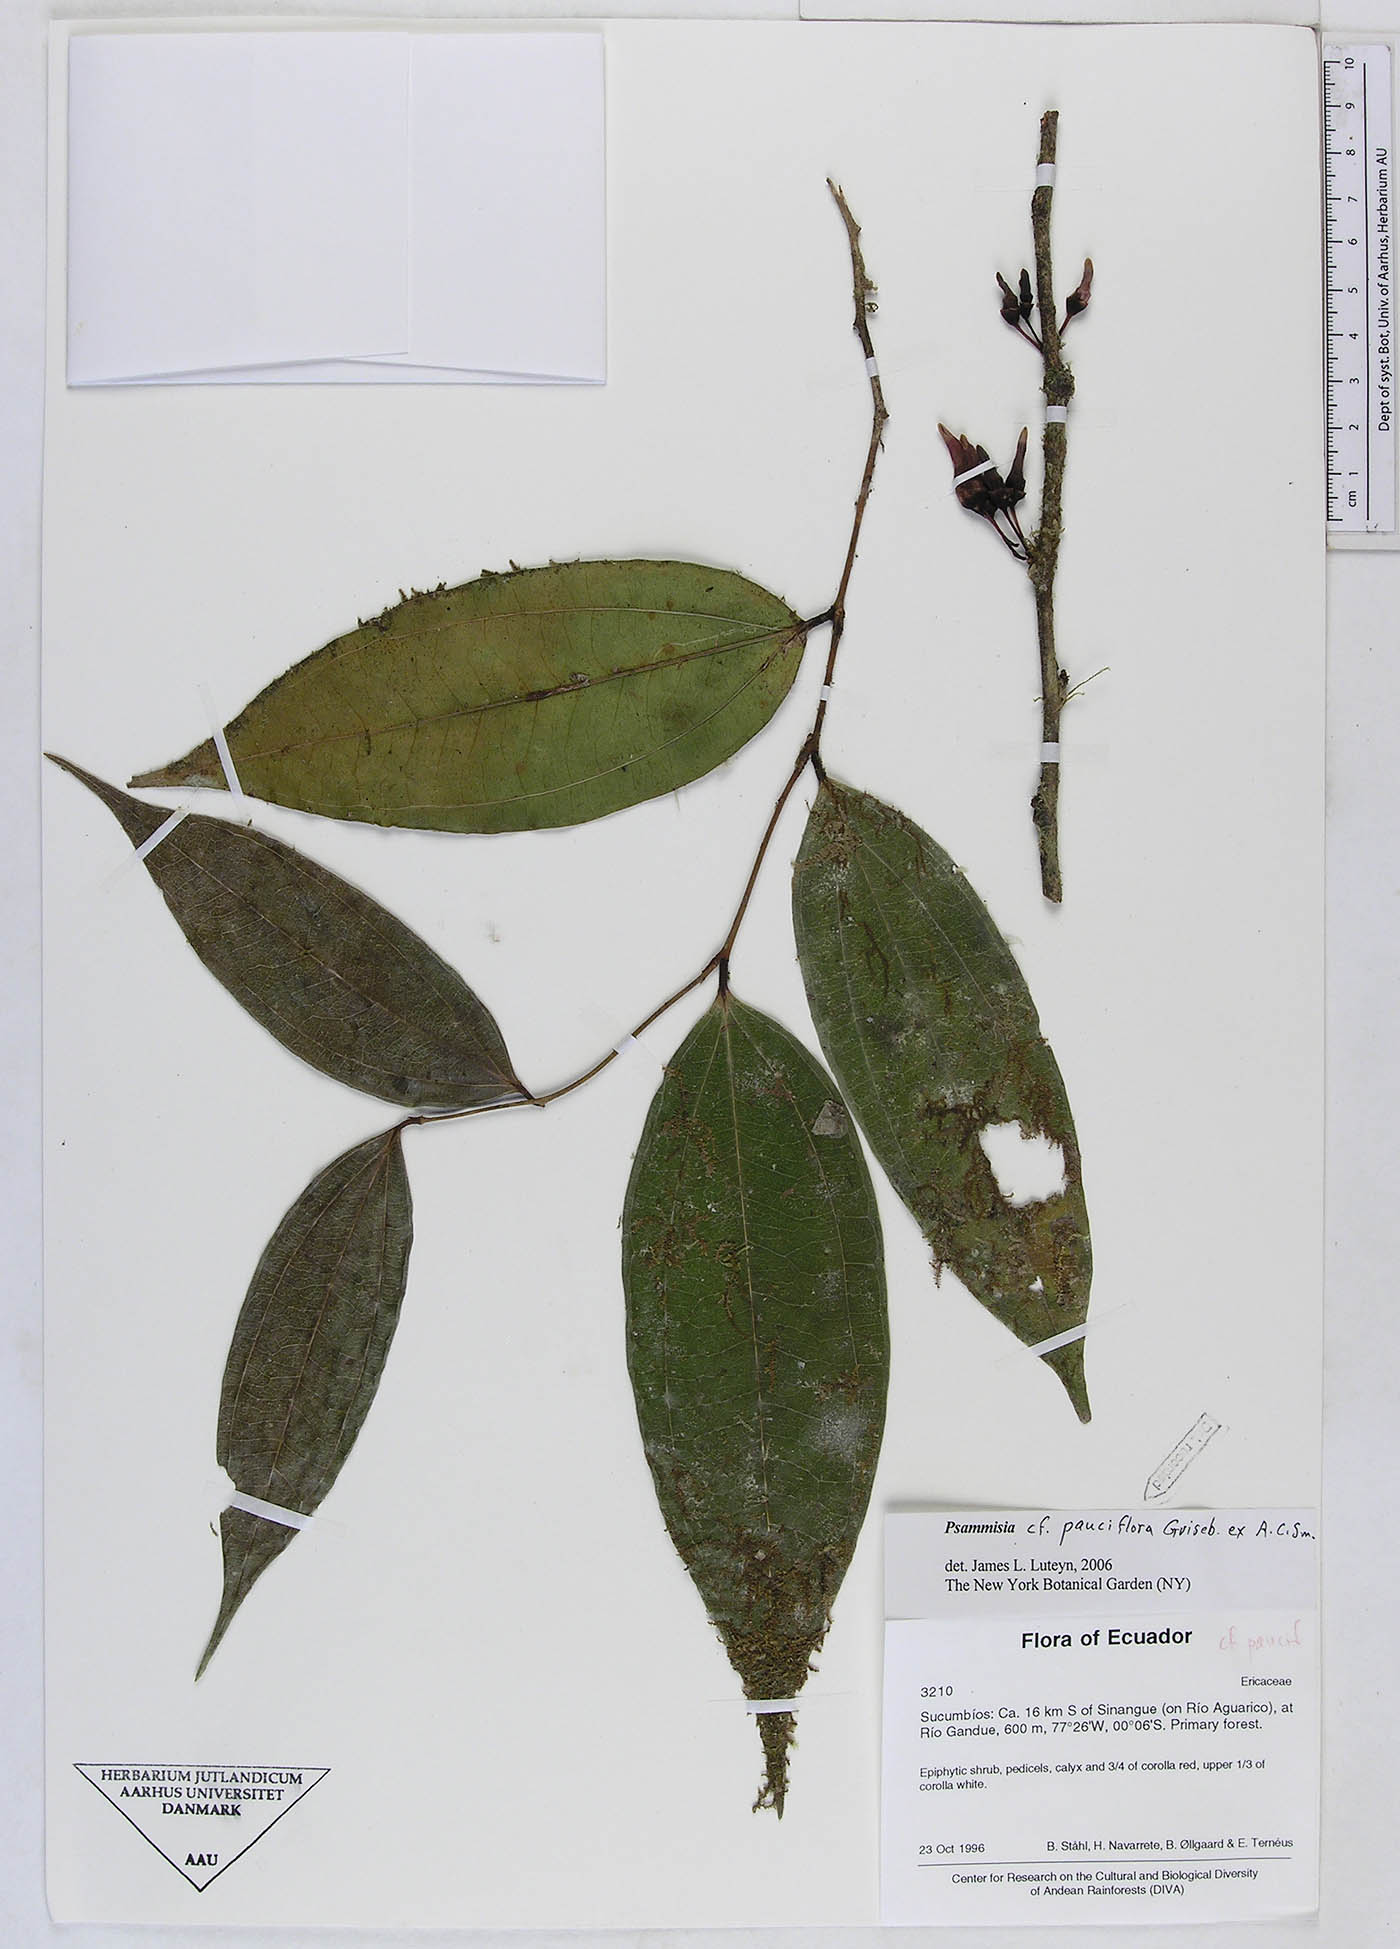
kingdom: Plantae
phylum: Tracheophyta
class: Magnoliopsida
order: Ericales
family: Ericaceae
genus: Psammisia
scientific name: Psammisia urichiana
